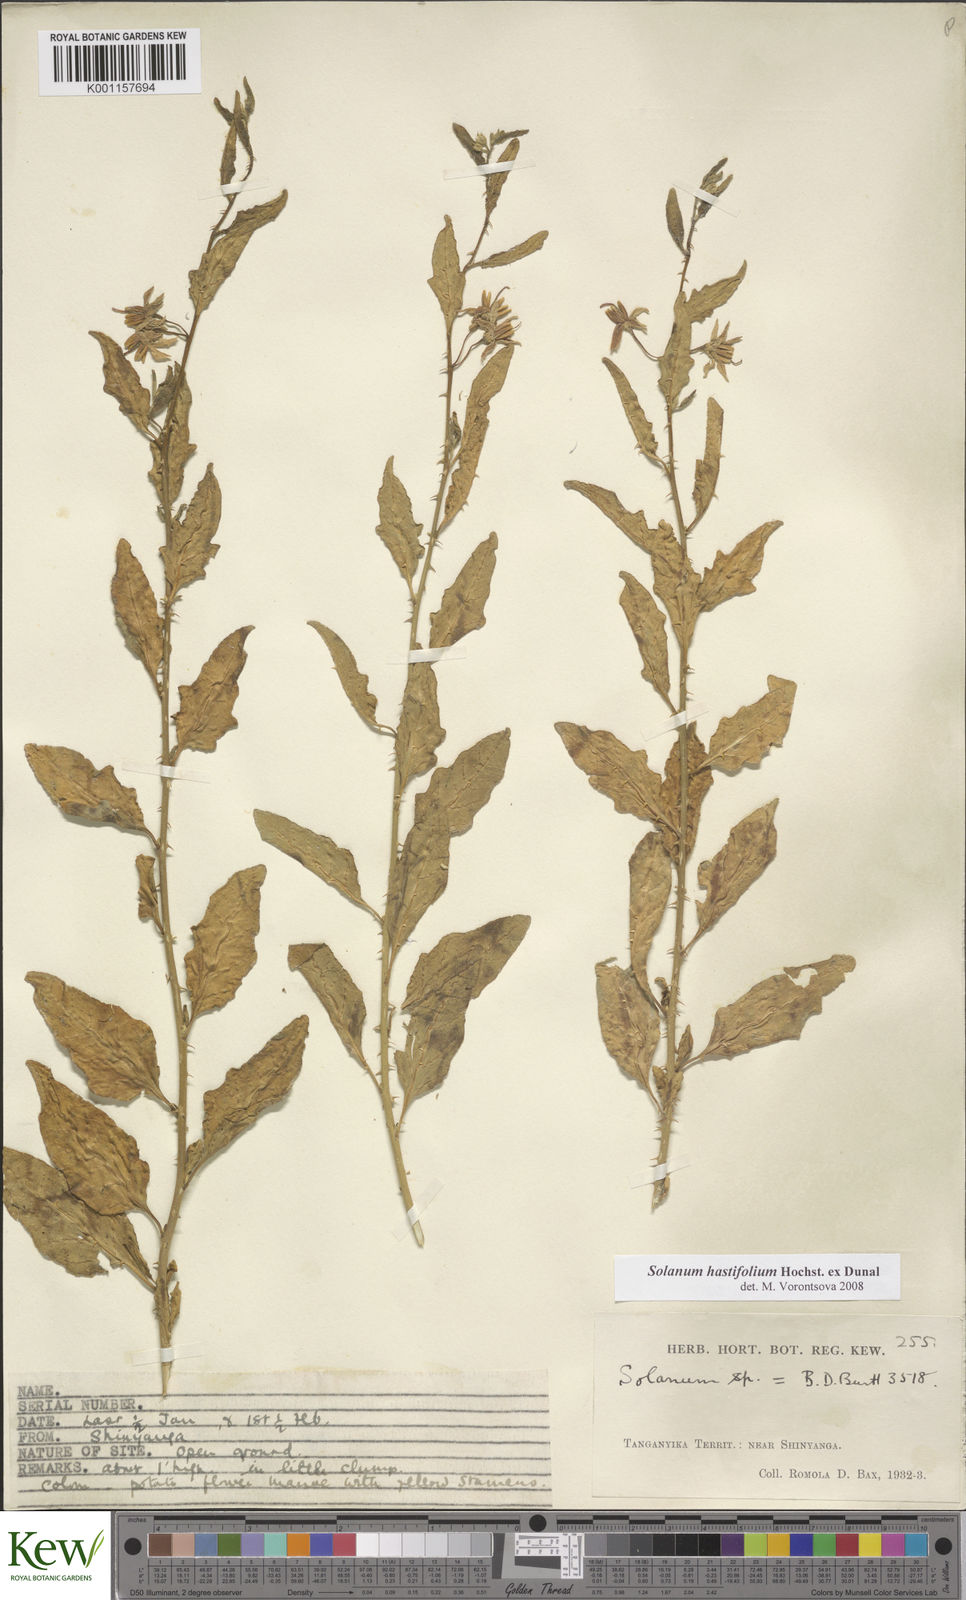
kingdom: Plantae
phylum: Tracheophyta
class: Magnoliopsida
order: Solanales
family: Solanaceae
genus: Solanum
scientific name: Solanum hastifolium
